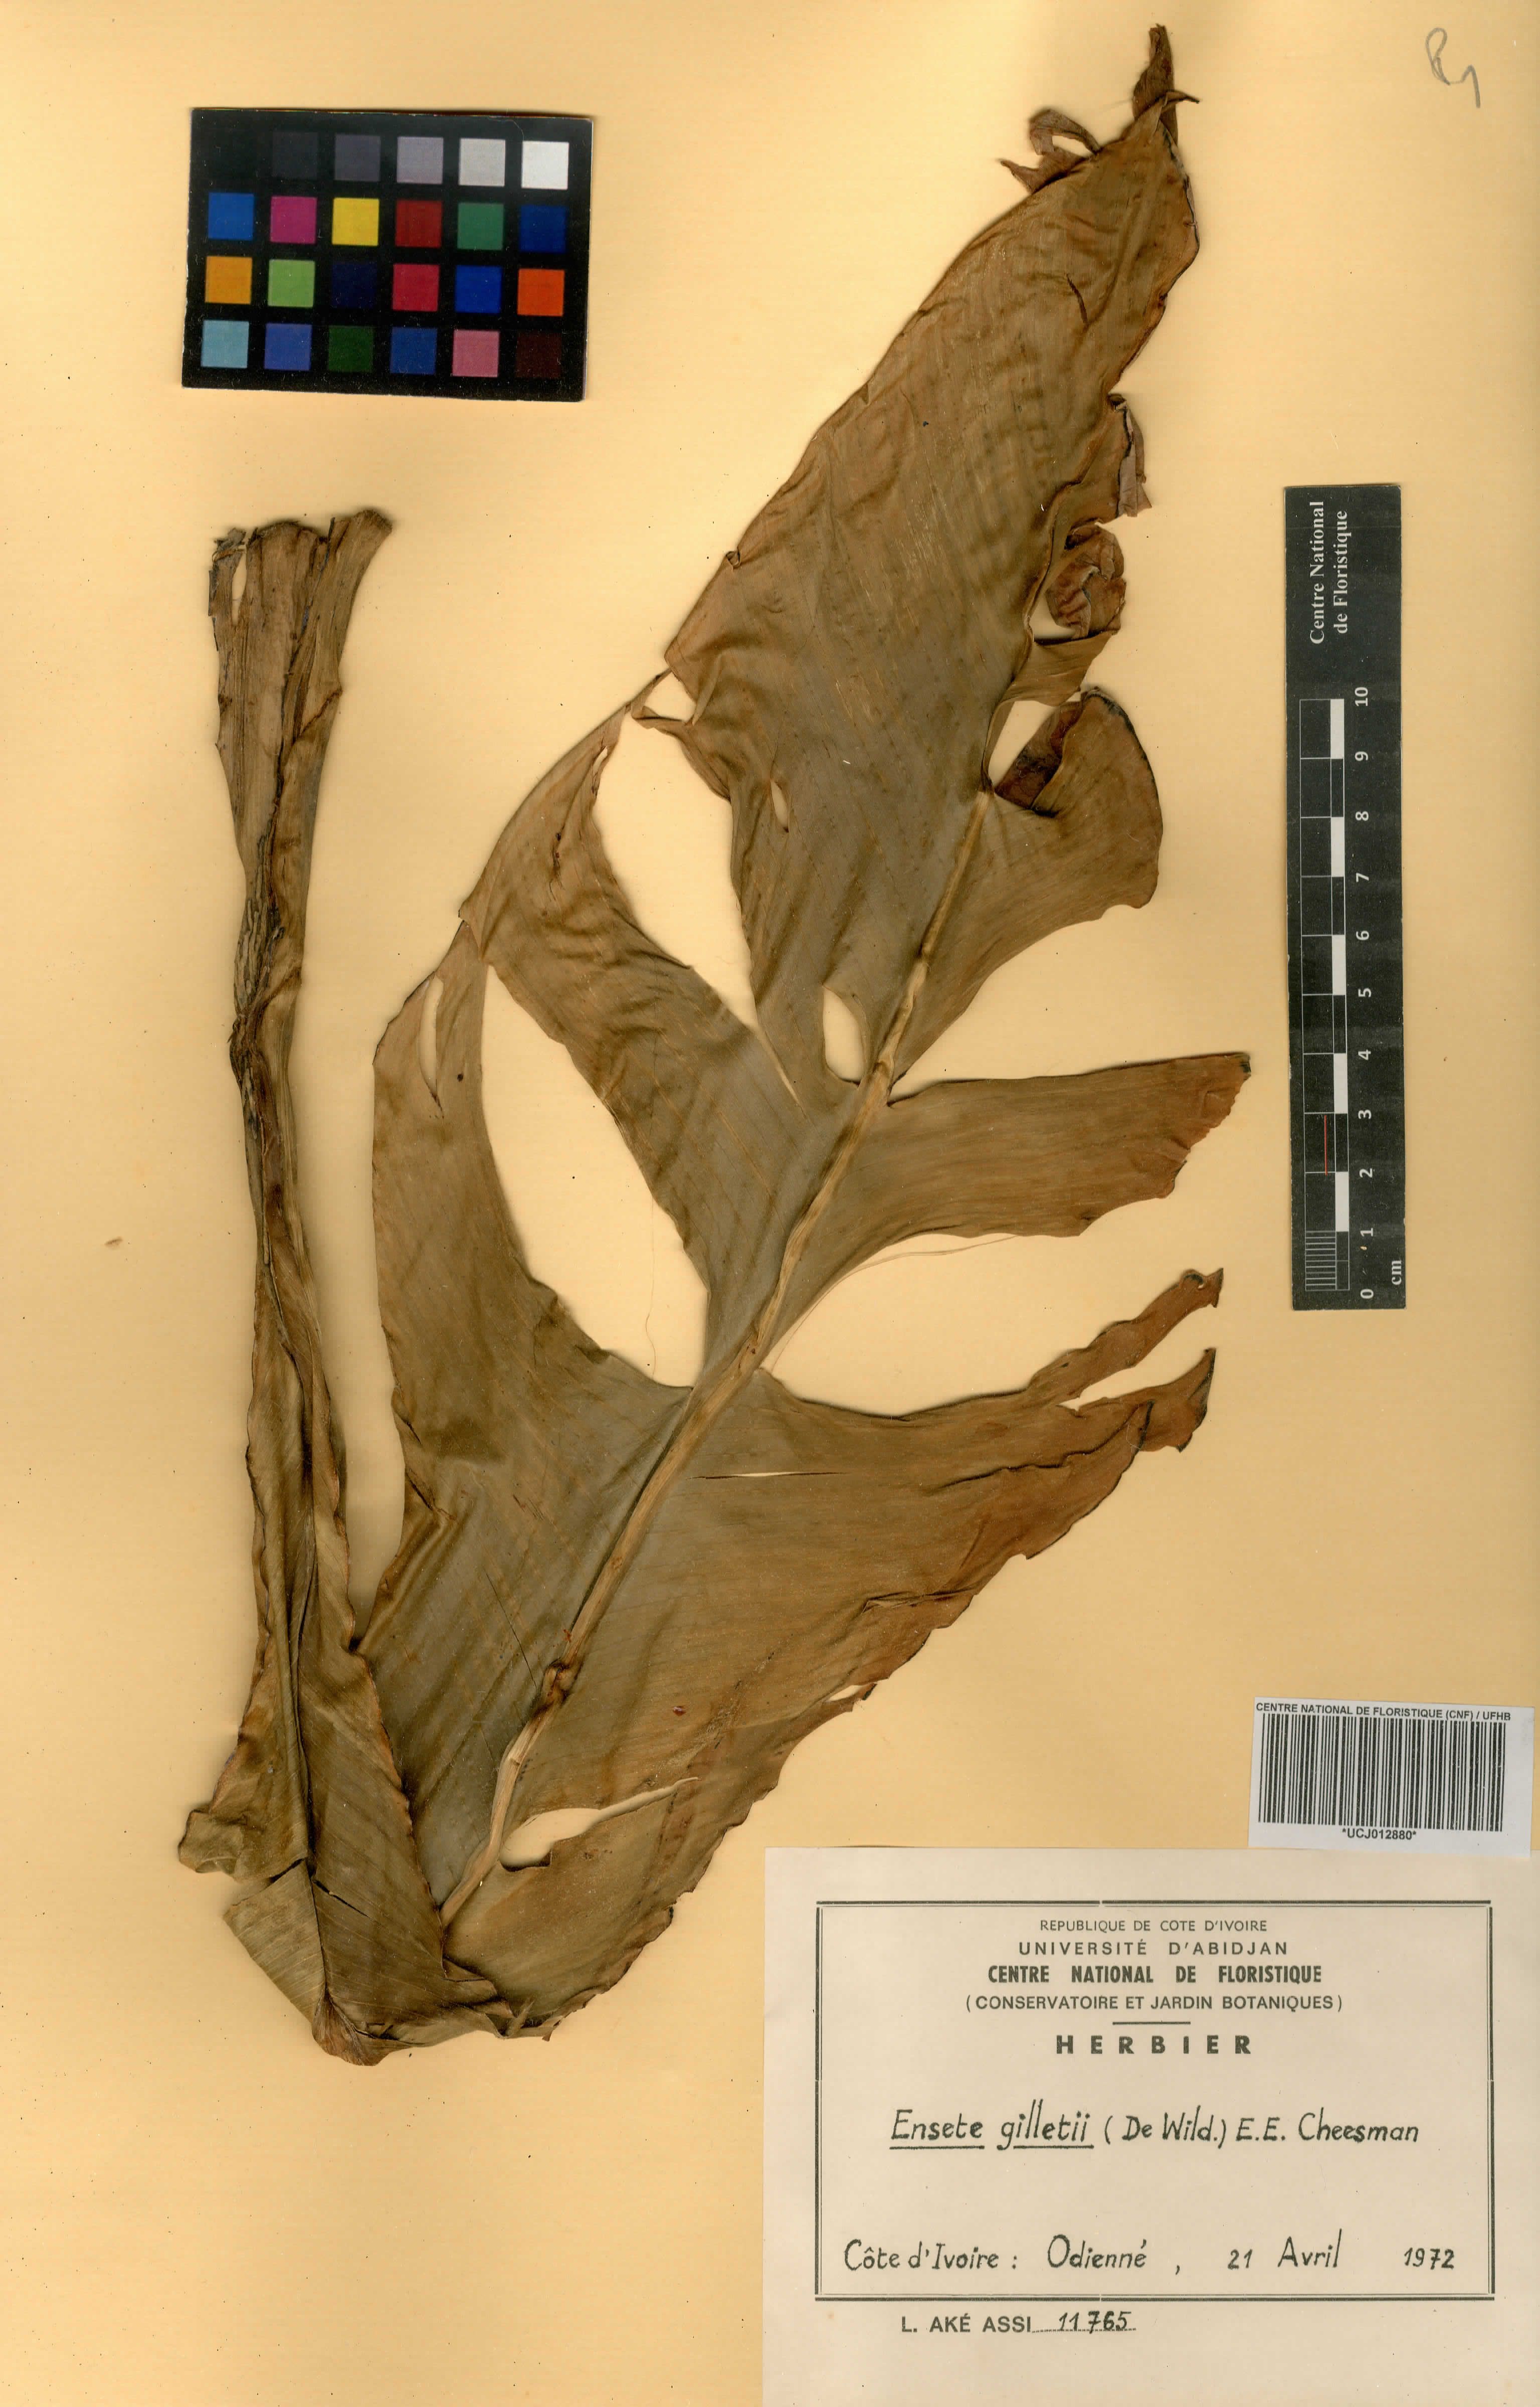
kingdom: Plantae
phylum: Tracheophyta
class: Liliopsida
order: Zingiberales
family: Musaceae
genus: Ensete
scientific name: Ensete livingstonianum
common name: Livingston's banana
